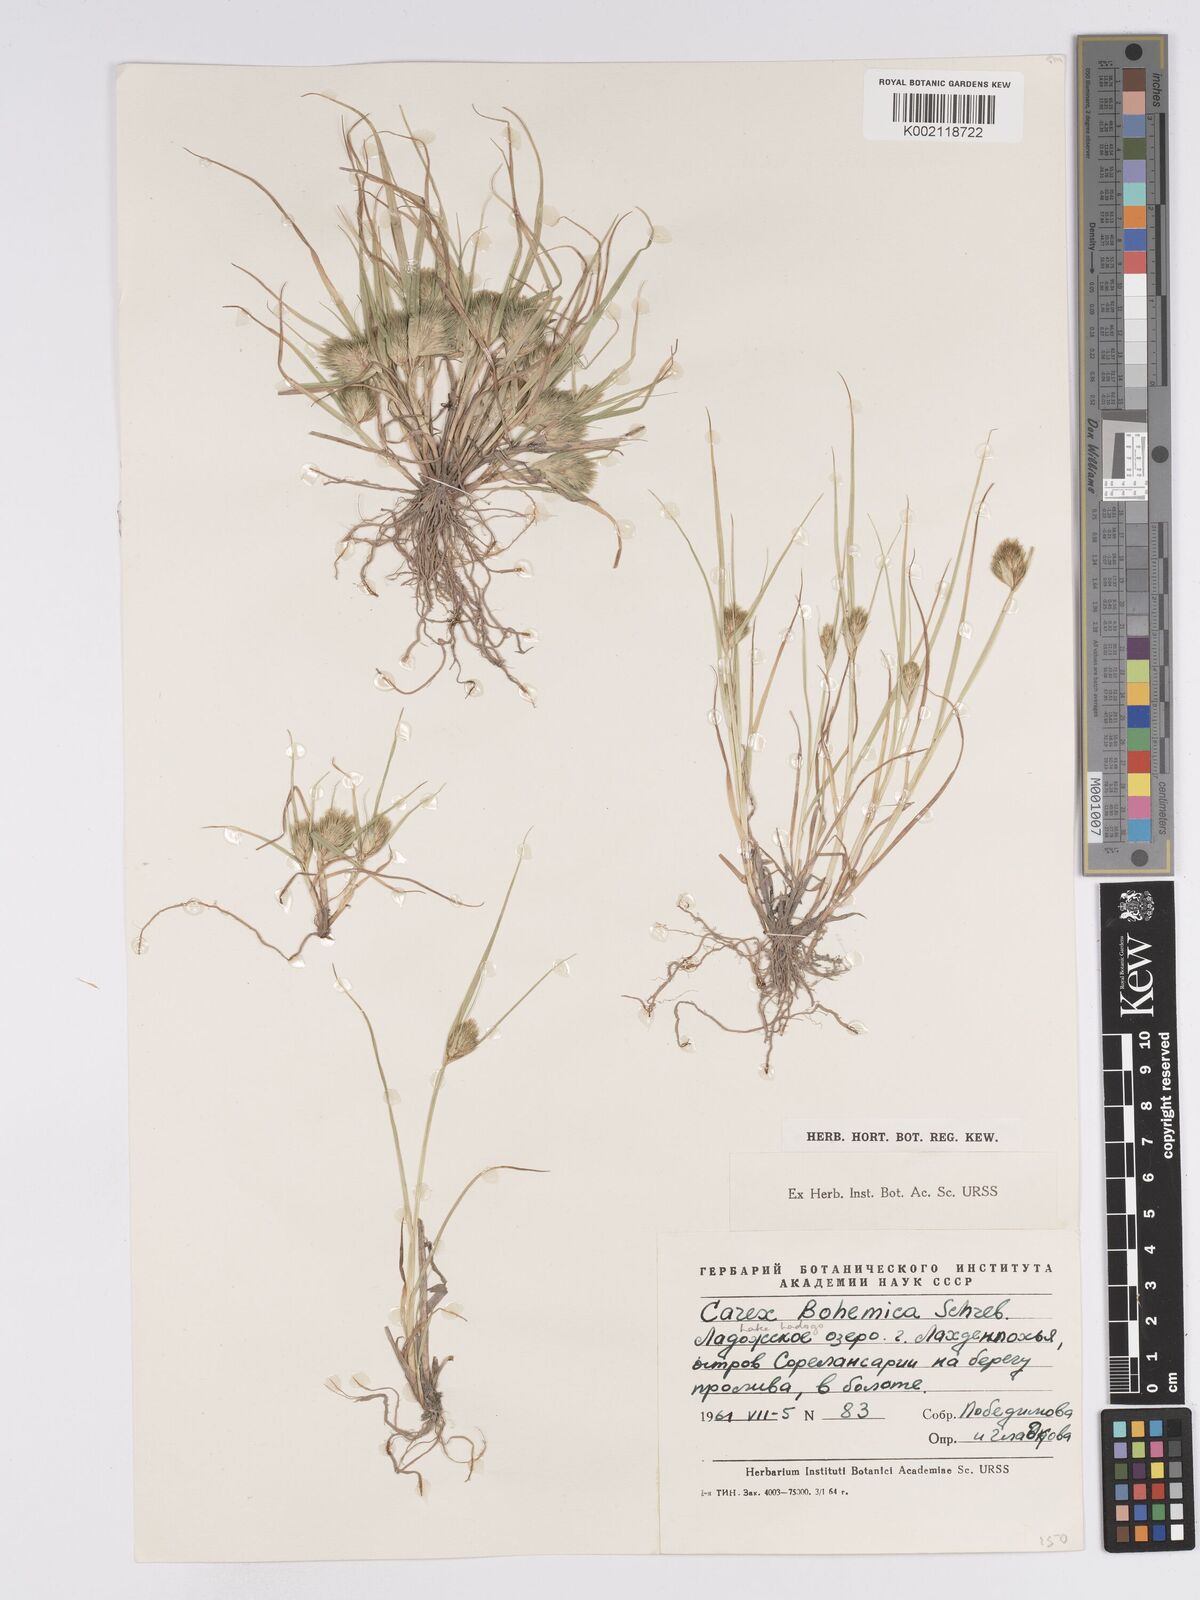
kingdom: Plantae
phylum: Tracheophyta
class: Liliopsida
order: Poales
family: Cyperaceae
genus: Carex
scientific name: Carex bohemica
